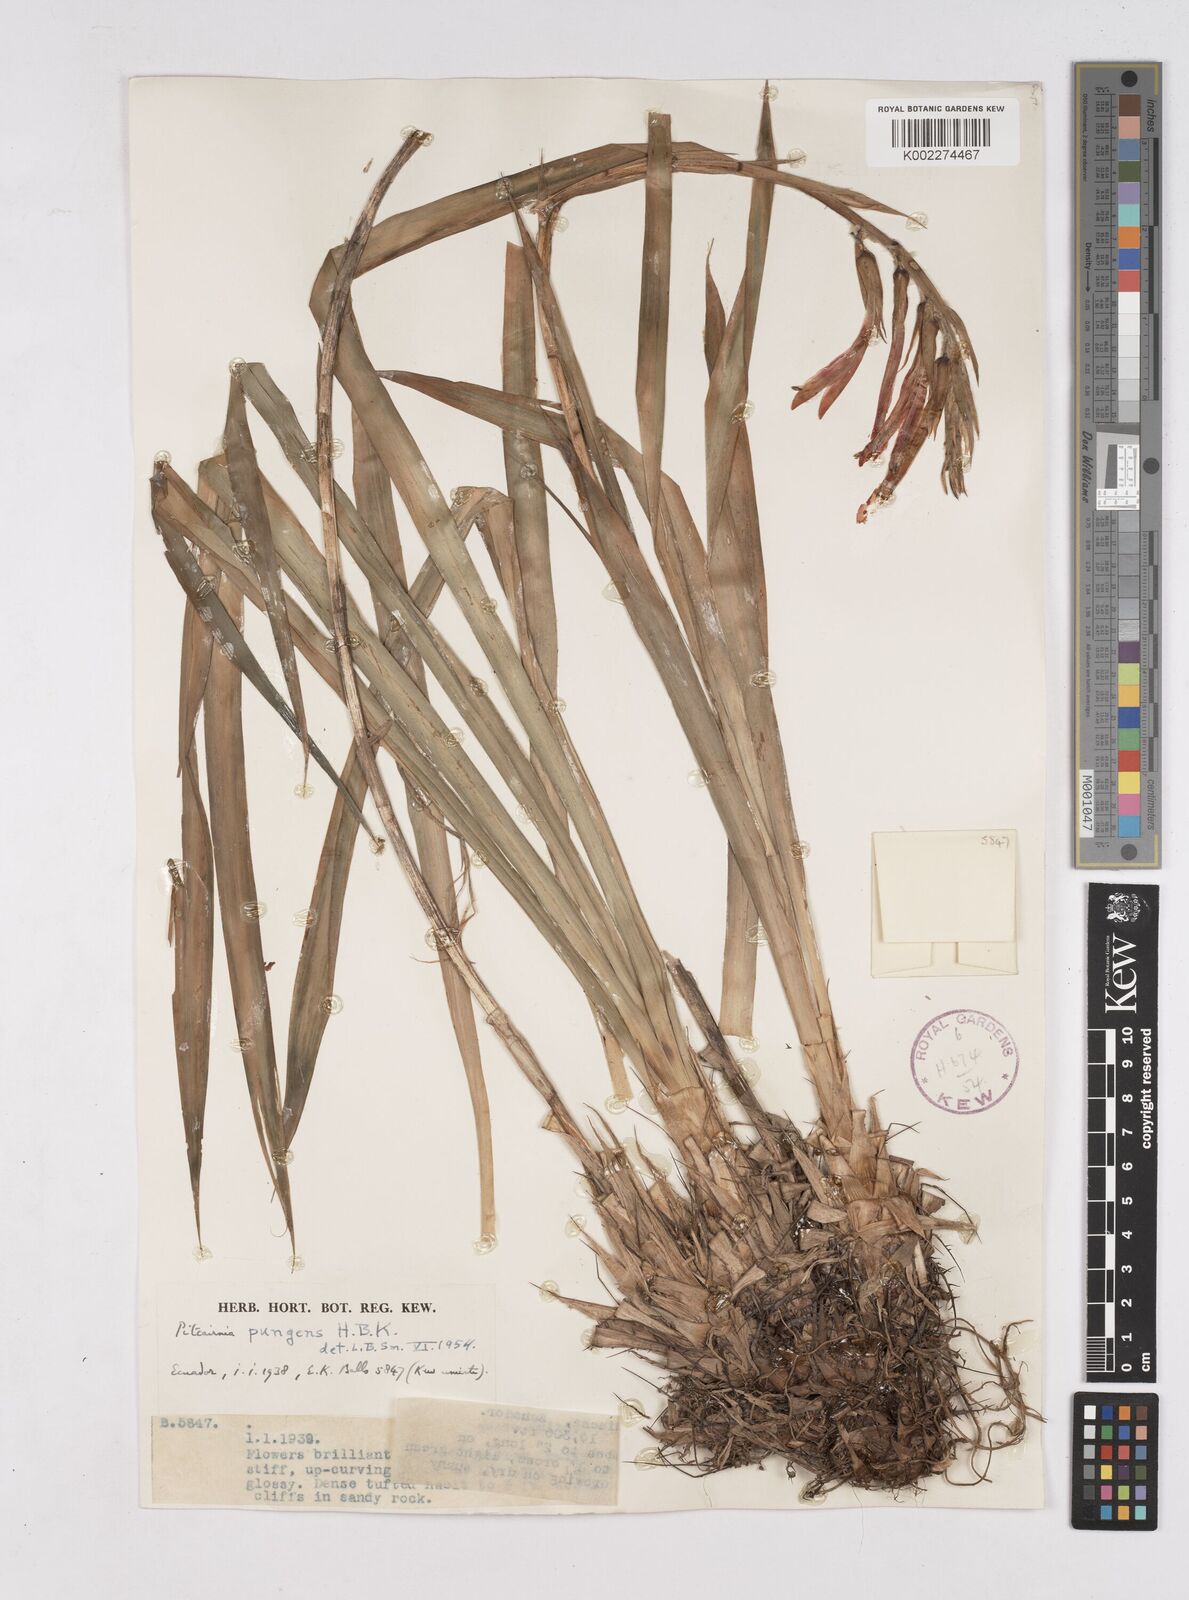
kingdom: Plantae
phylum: Tracheophyta
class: Liliopsida
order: Poales
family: Bromeliaceae
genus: Pitcairnia
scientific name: Pitcairnia pungens
